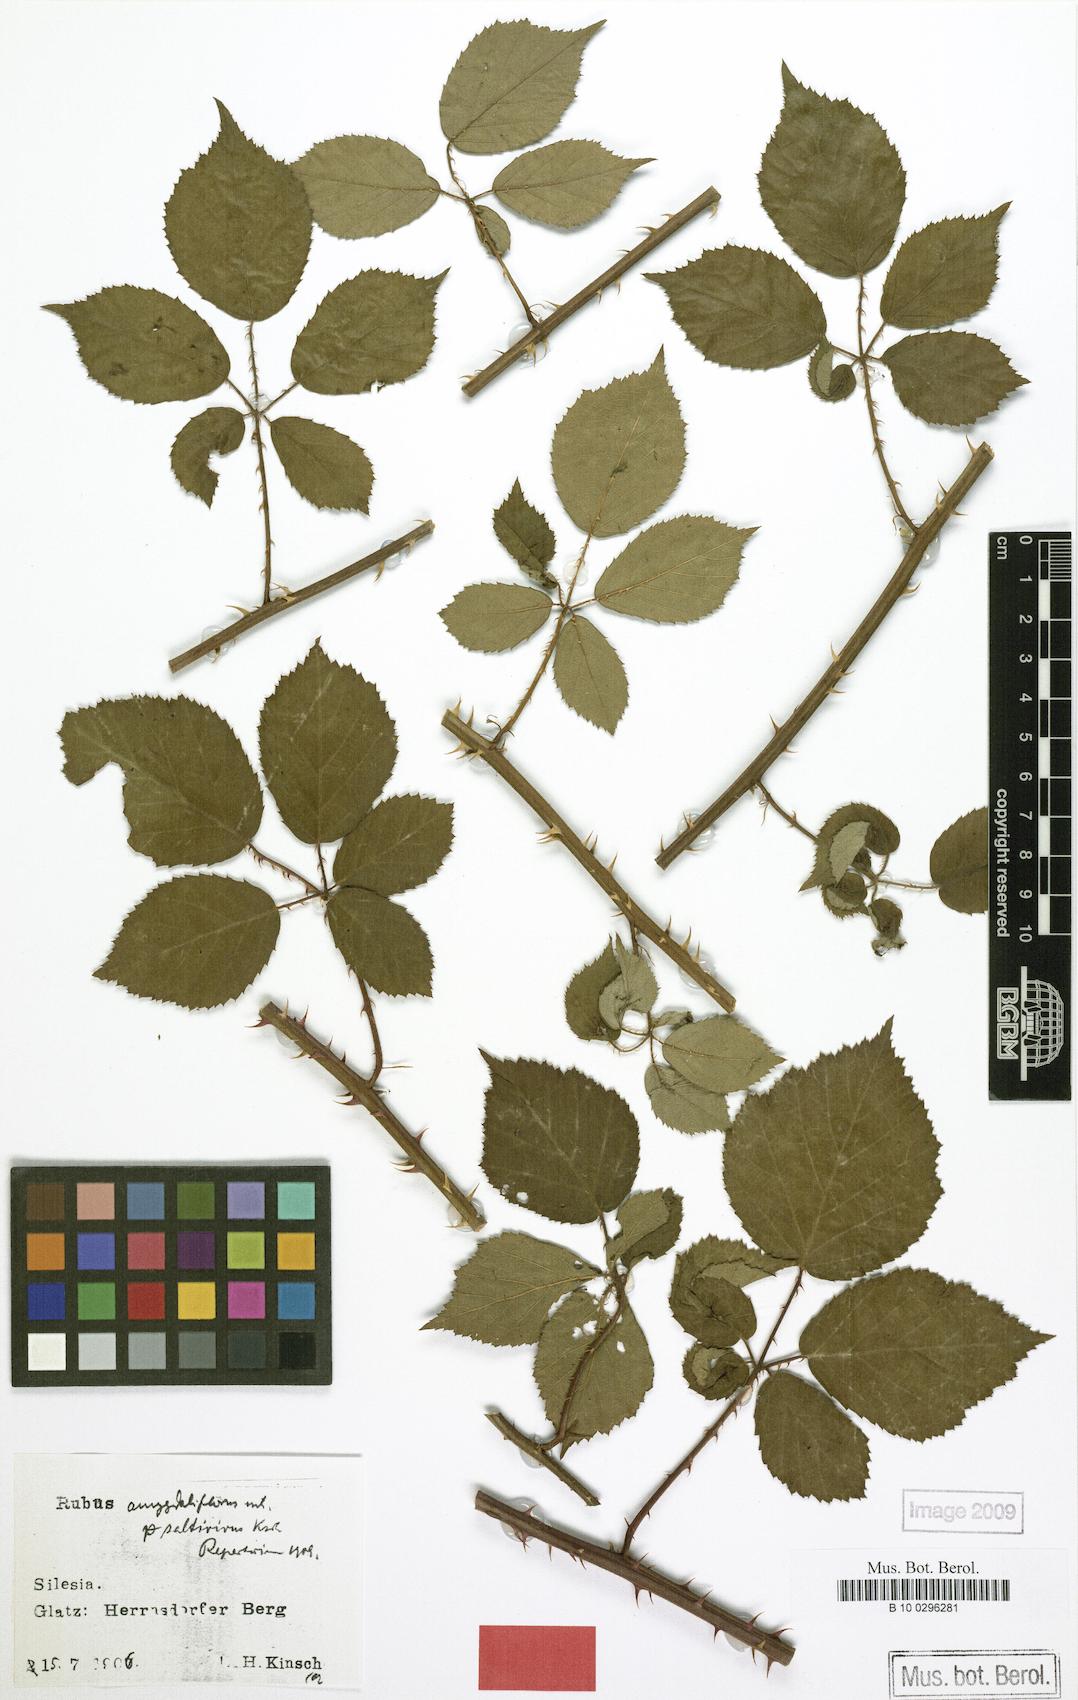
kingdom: Plantae
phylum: Tracheophyta
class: Magnoliopsida
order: Rosales
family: Rosaceae
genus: Rubus
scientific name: Rubus saltivivus
